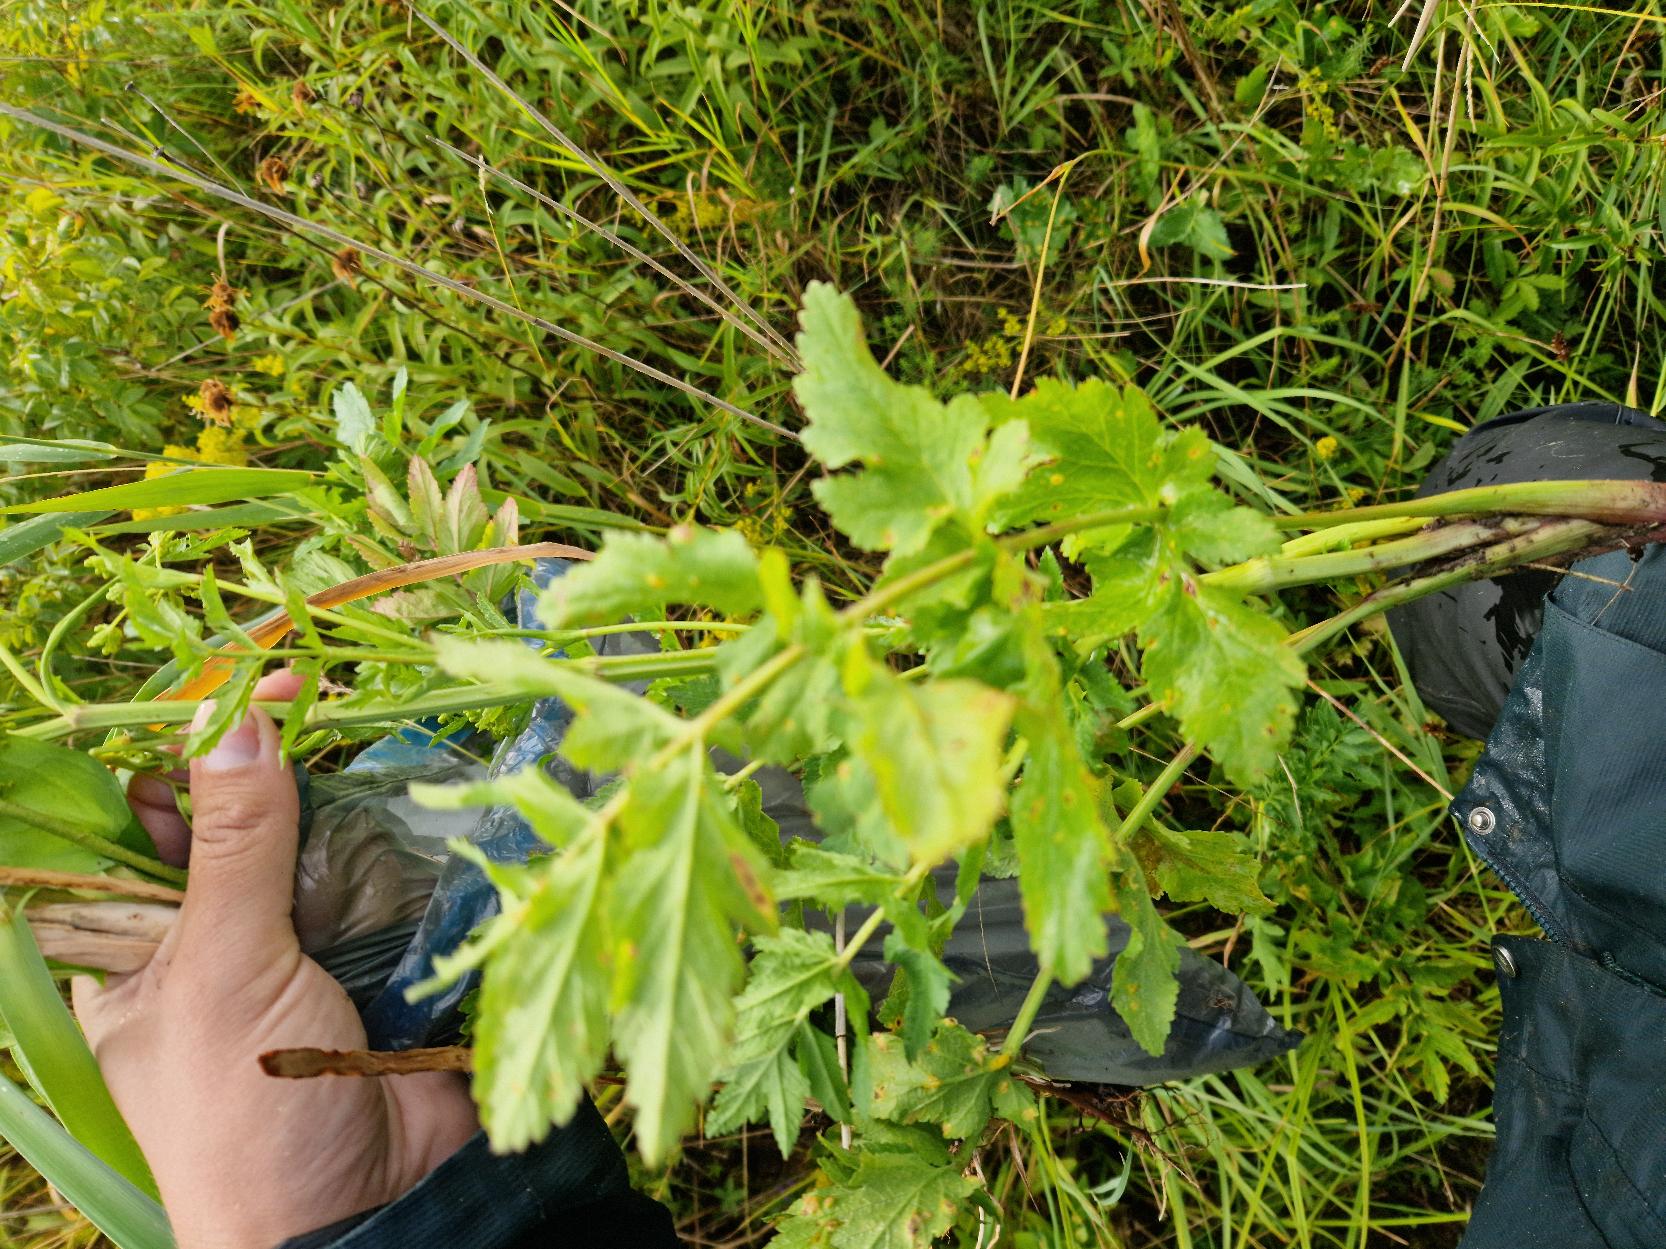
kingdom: Plantae
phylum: Tracheophyta
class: Magnoliopsida
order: Apiales
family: Apiaceae
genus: Pastinaca
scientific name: Pastinaca sativa
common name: Have-pastinak
